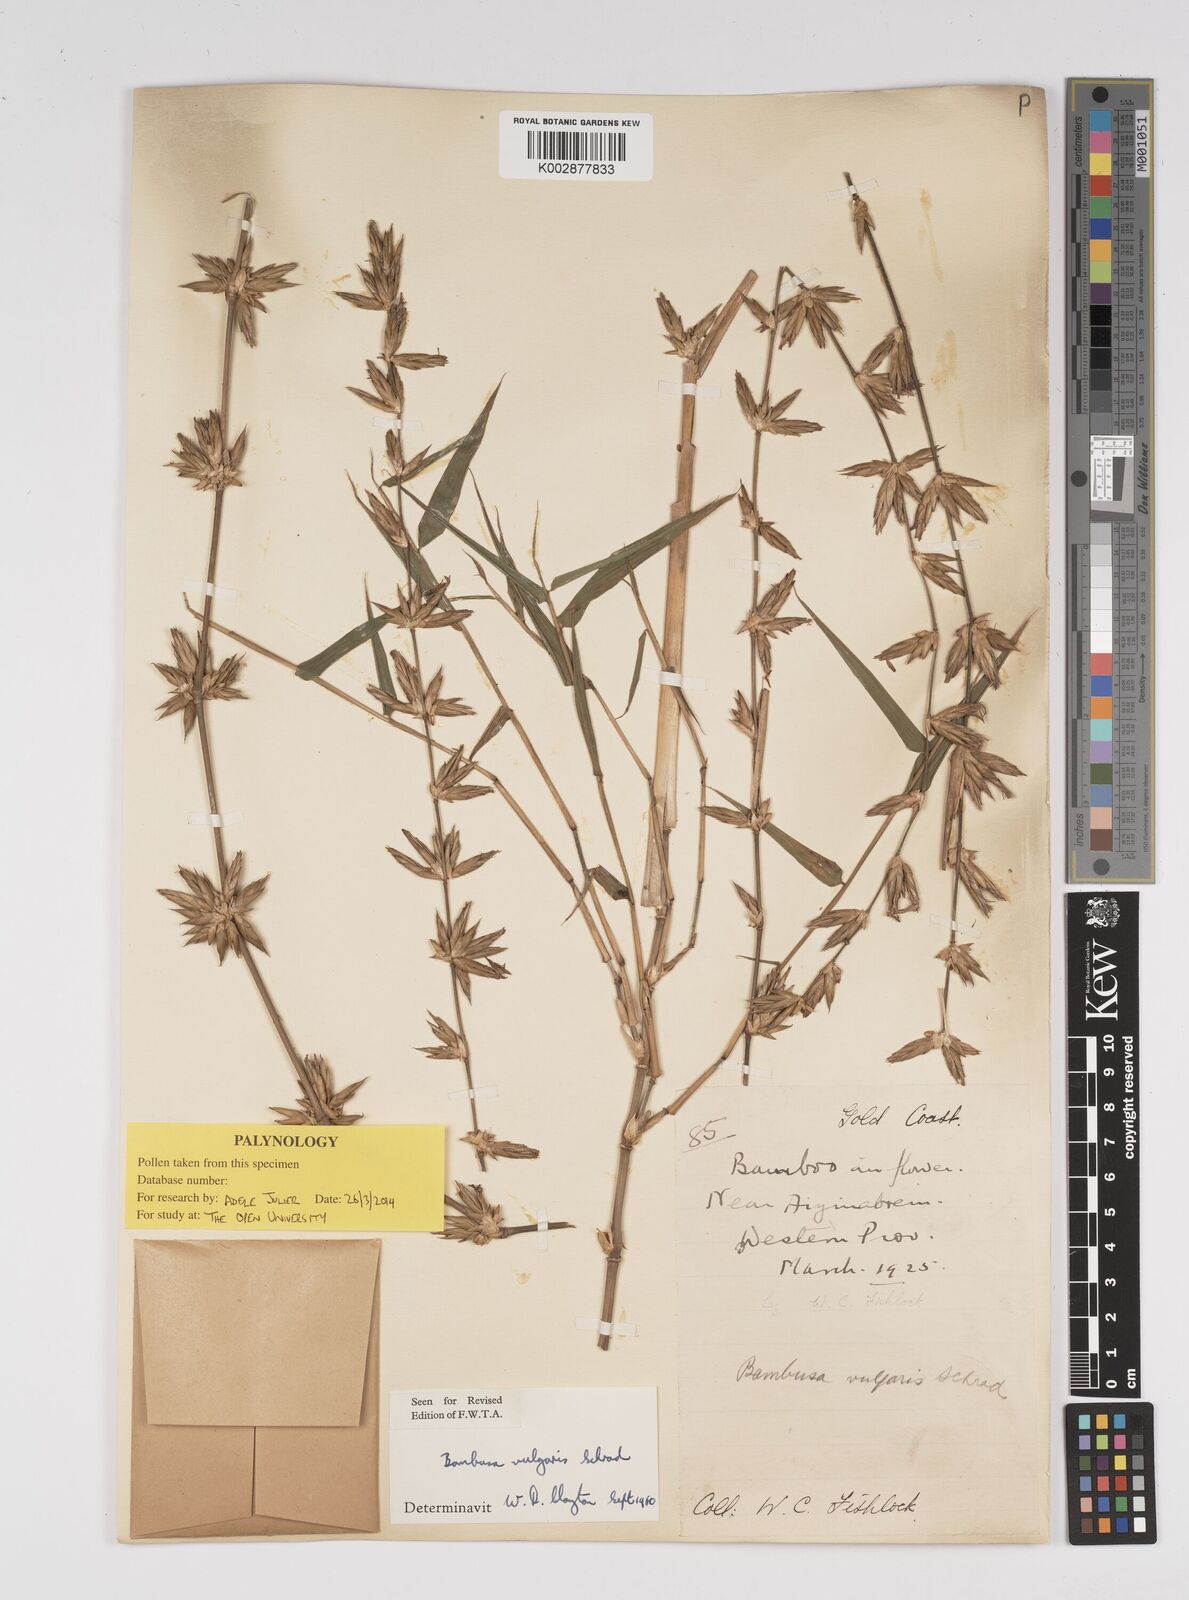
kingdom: Plantae
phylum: Tracheophyta
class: Liliopsida
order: Poales
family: Poaceae
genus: Bambusa
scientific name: Bambusa vulgaris
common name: Common bamboo
